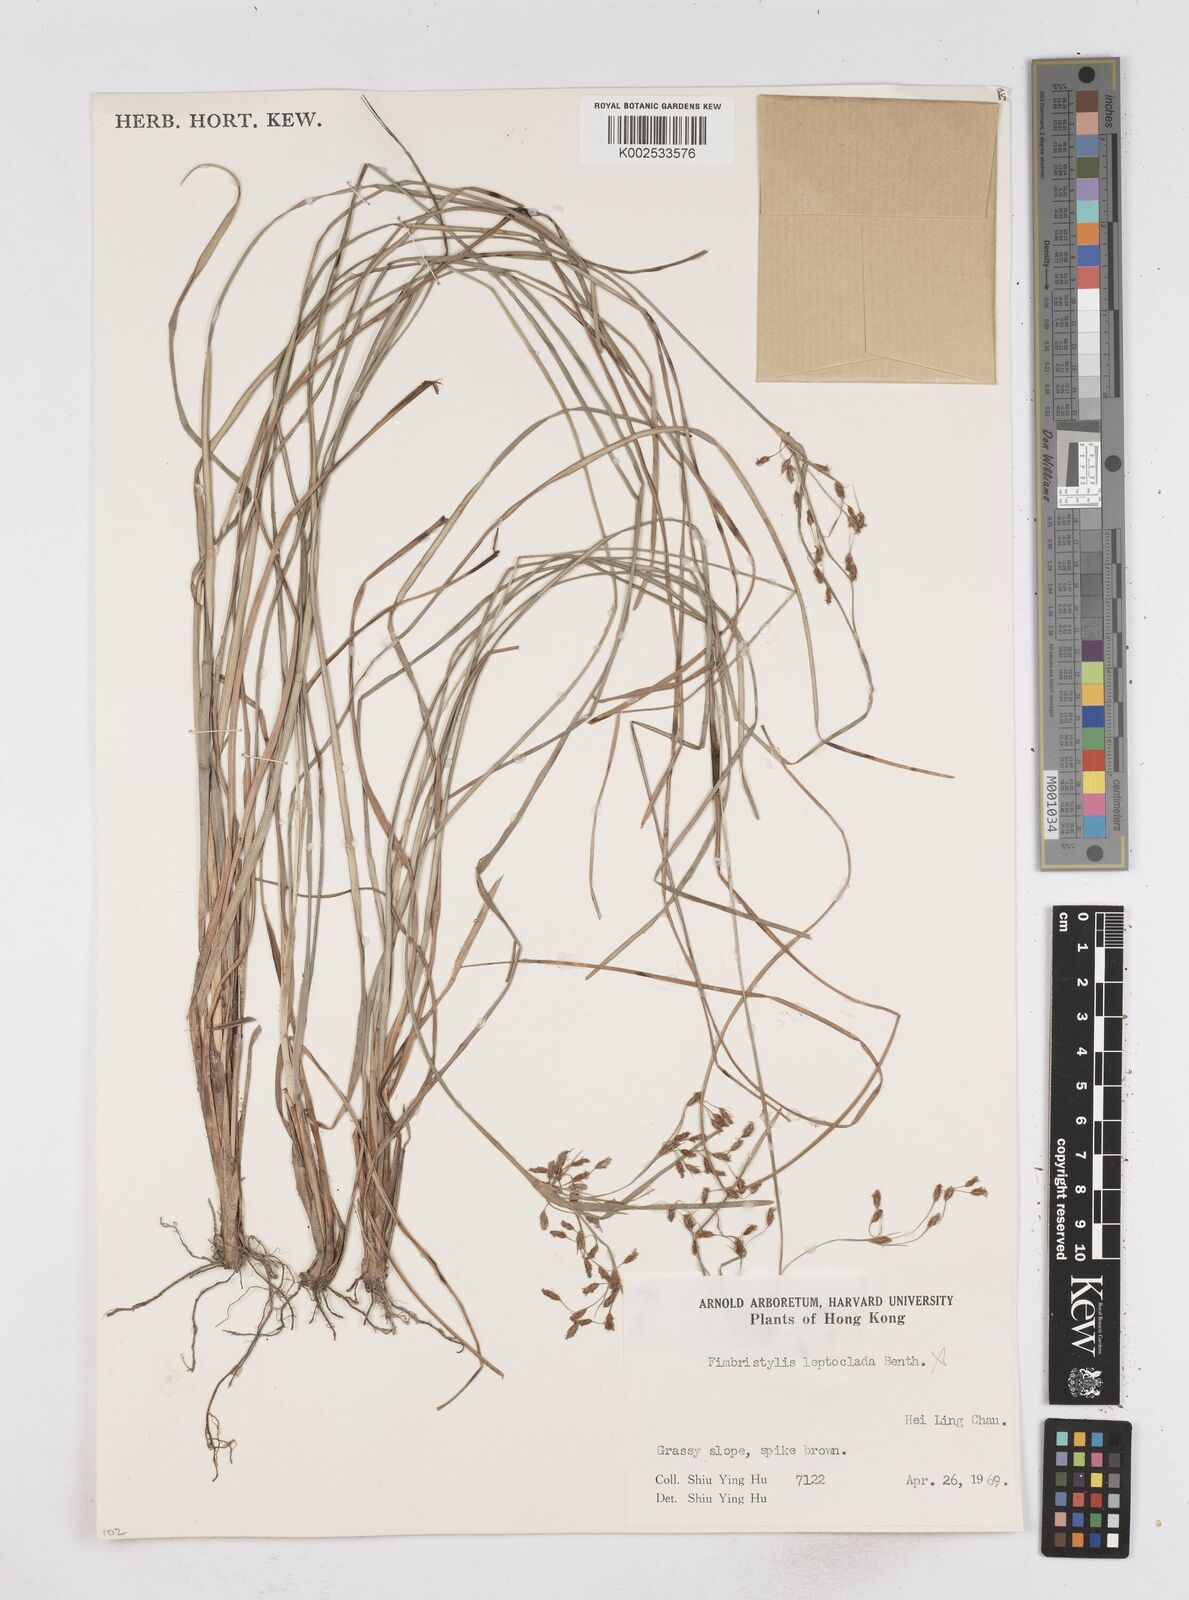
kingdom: Plantae
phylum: Tracheophyta
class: Liliopsida
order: Poales
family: Cyperaceae
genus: Fimbristylis
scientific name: Fimbristylis thomsonii
